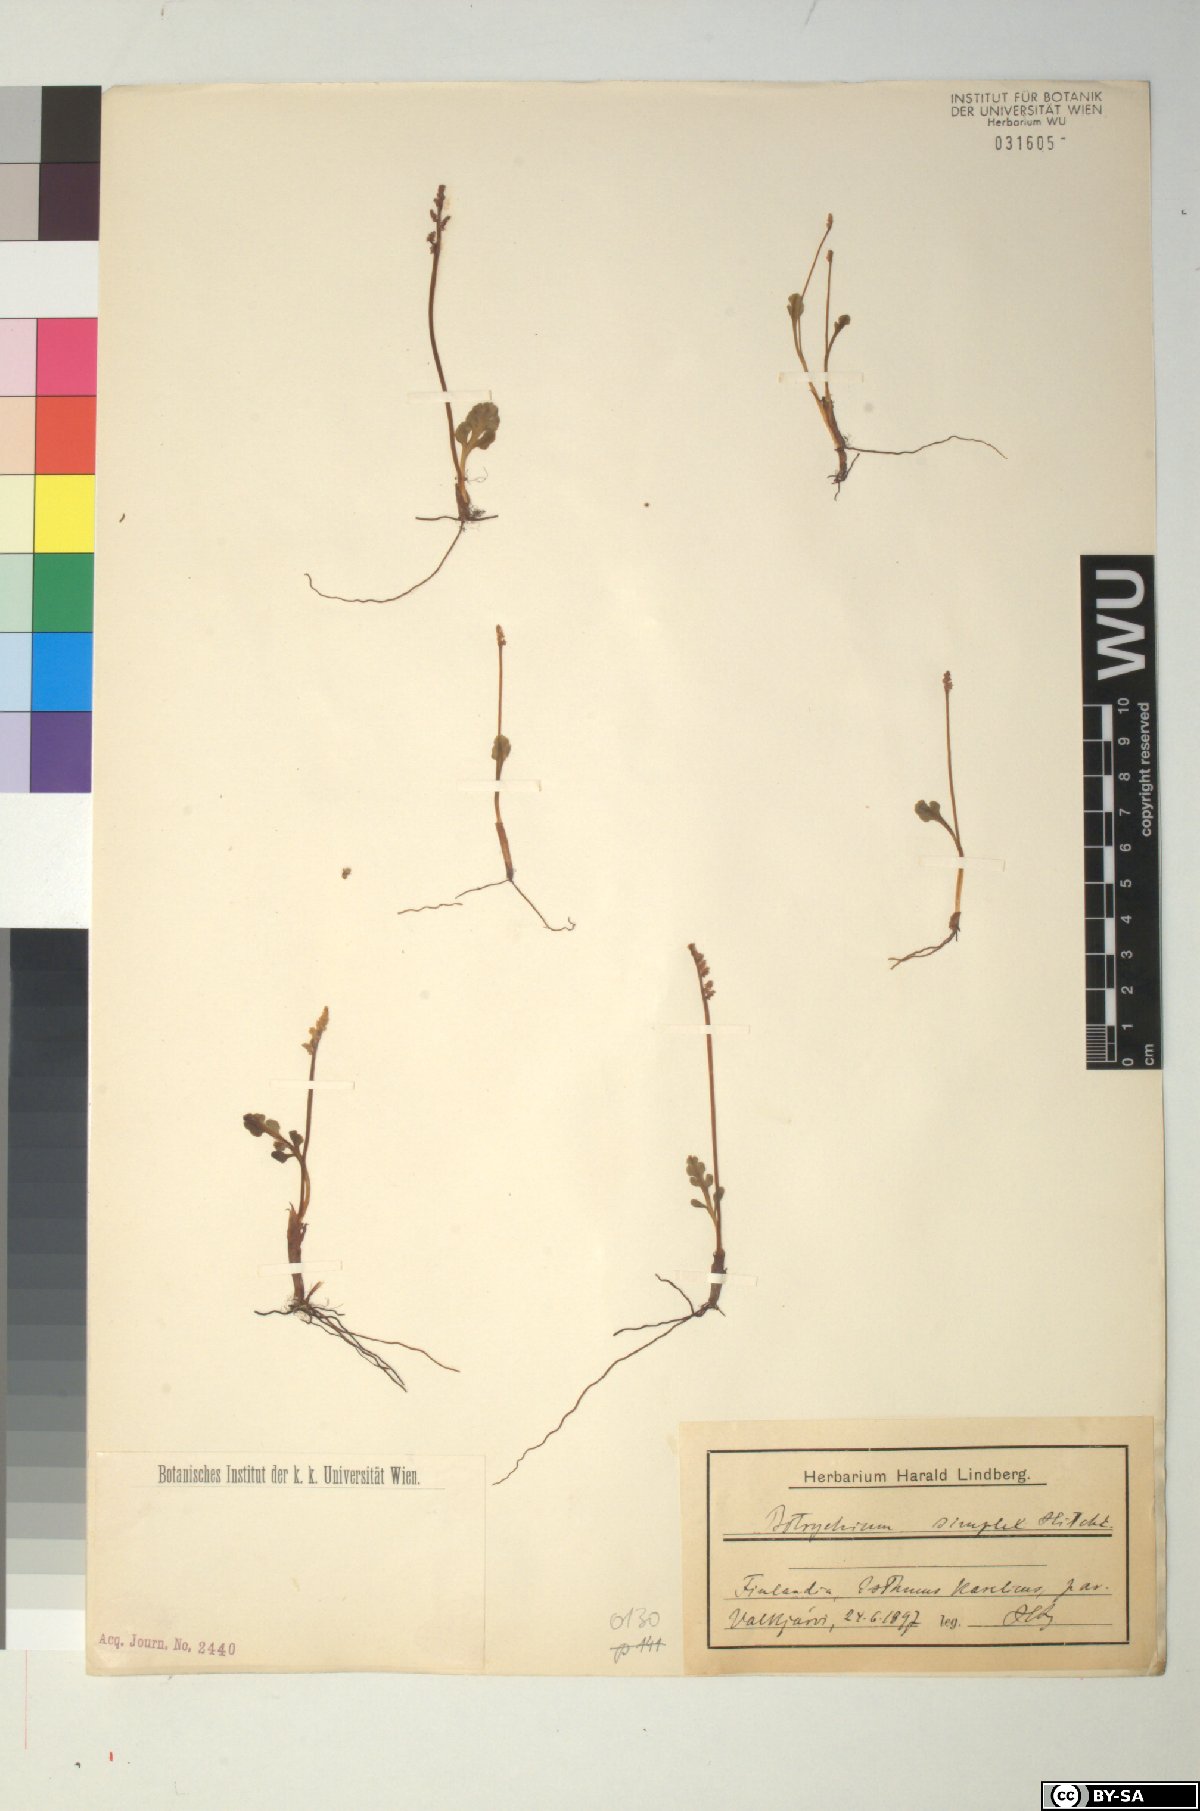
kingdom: Plantae
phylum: Tracheophyta
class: Polypodiopsida
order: Ophioglossales
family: Ophioglossaceae
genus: Botrychium
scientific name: Botrychium simplex
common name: Least moonwort
